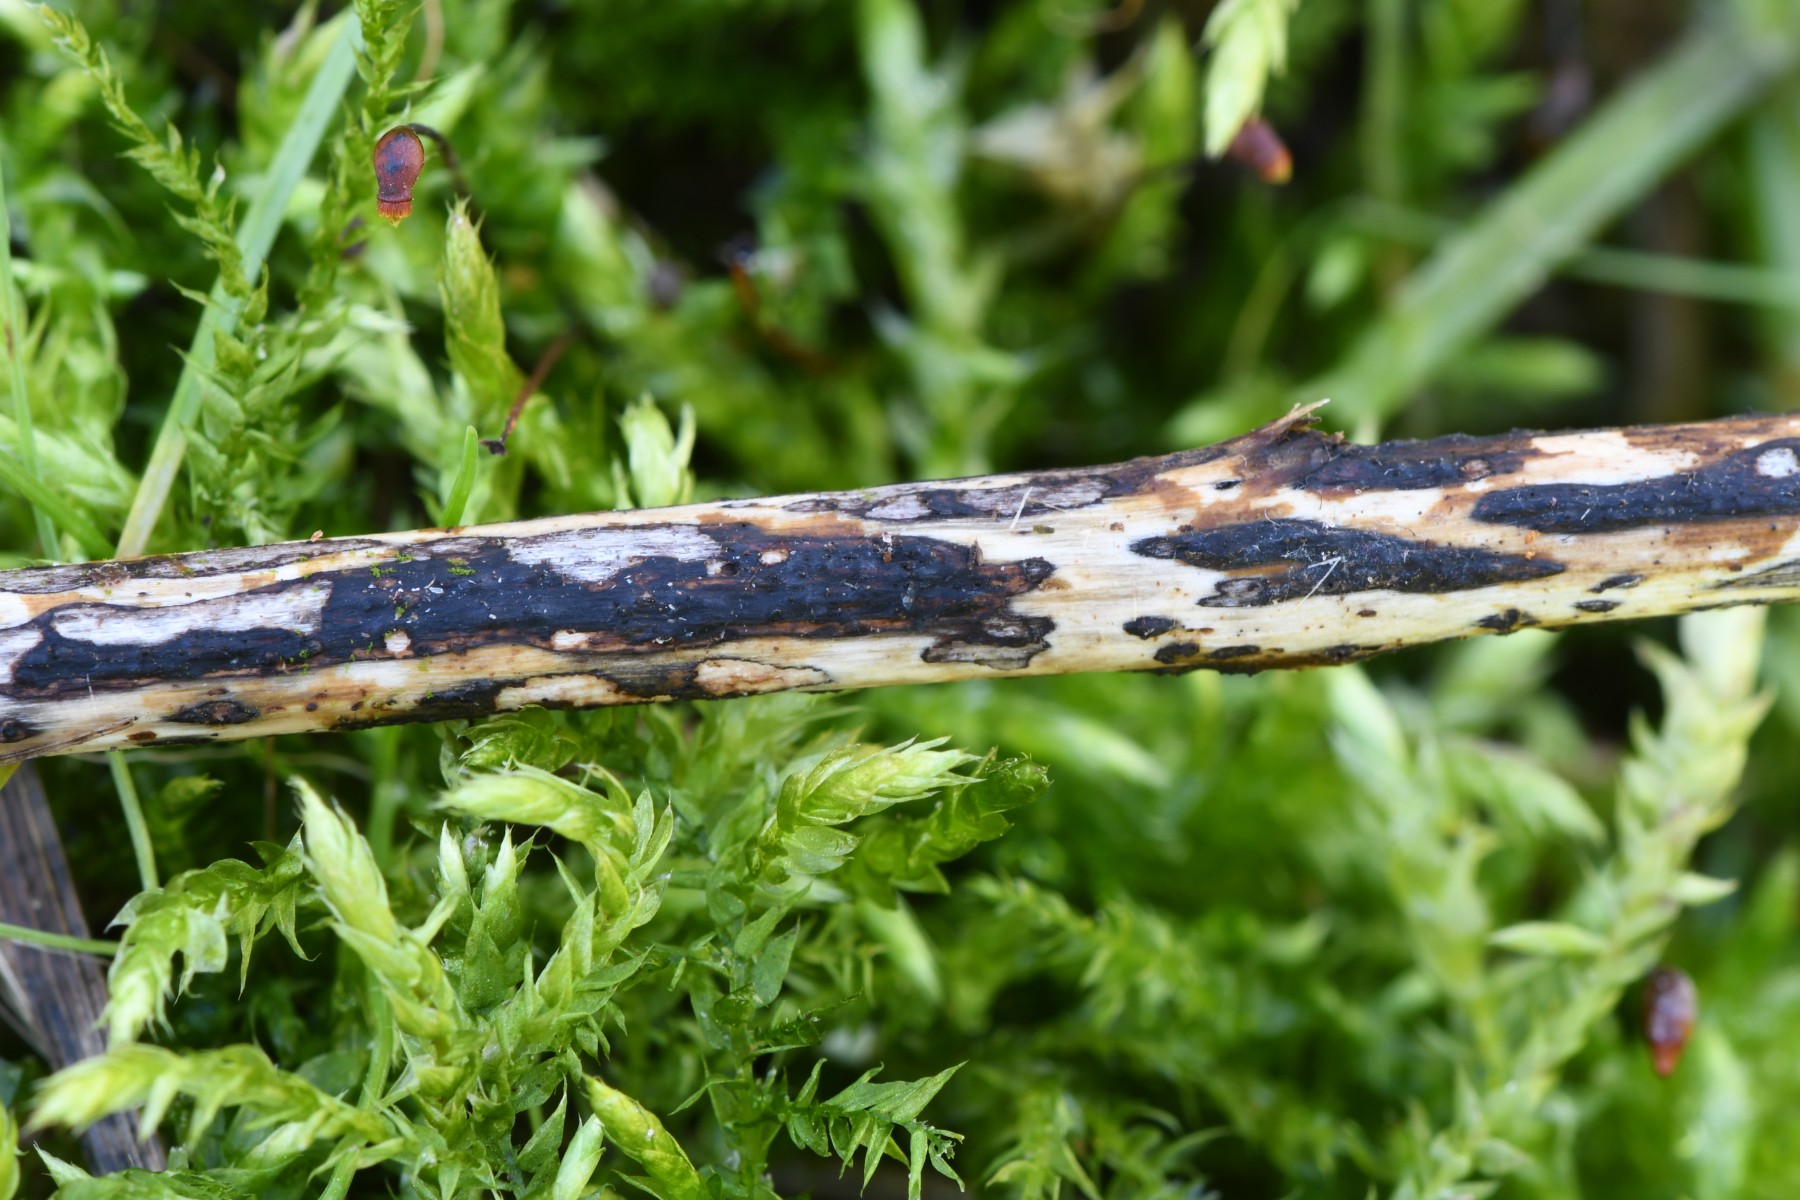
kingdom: Fungi
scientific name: Fungi
